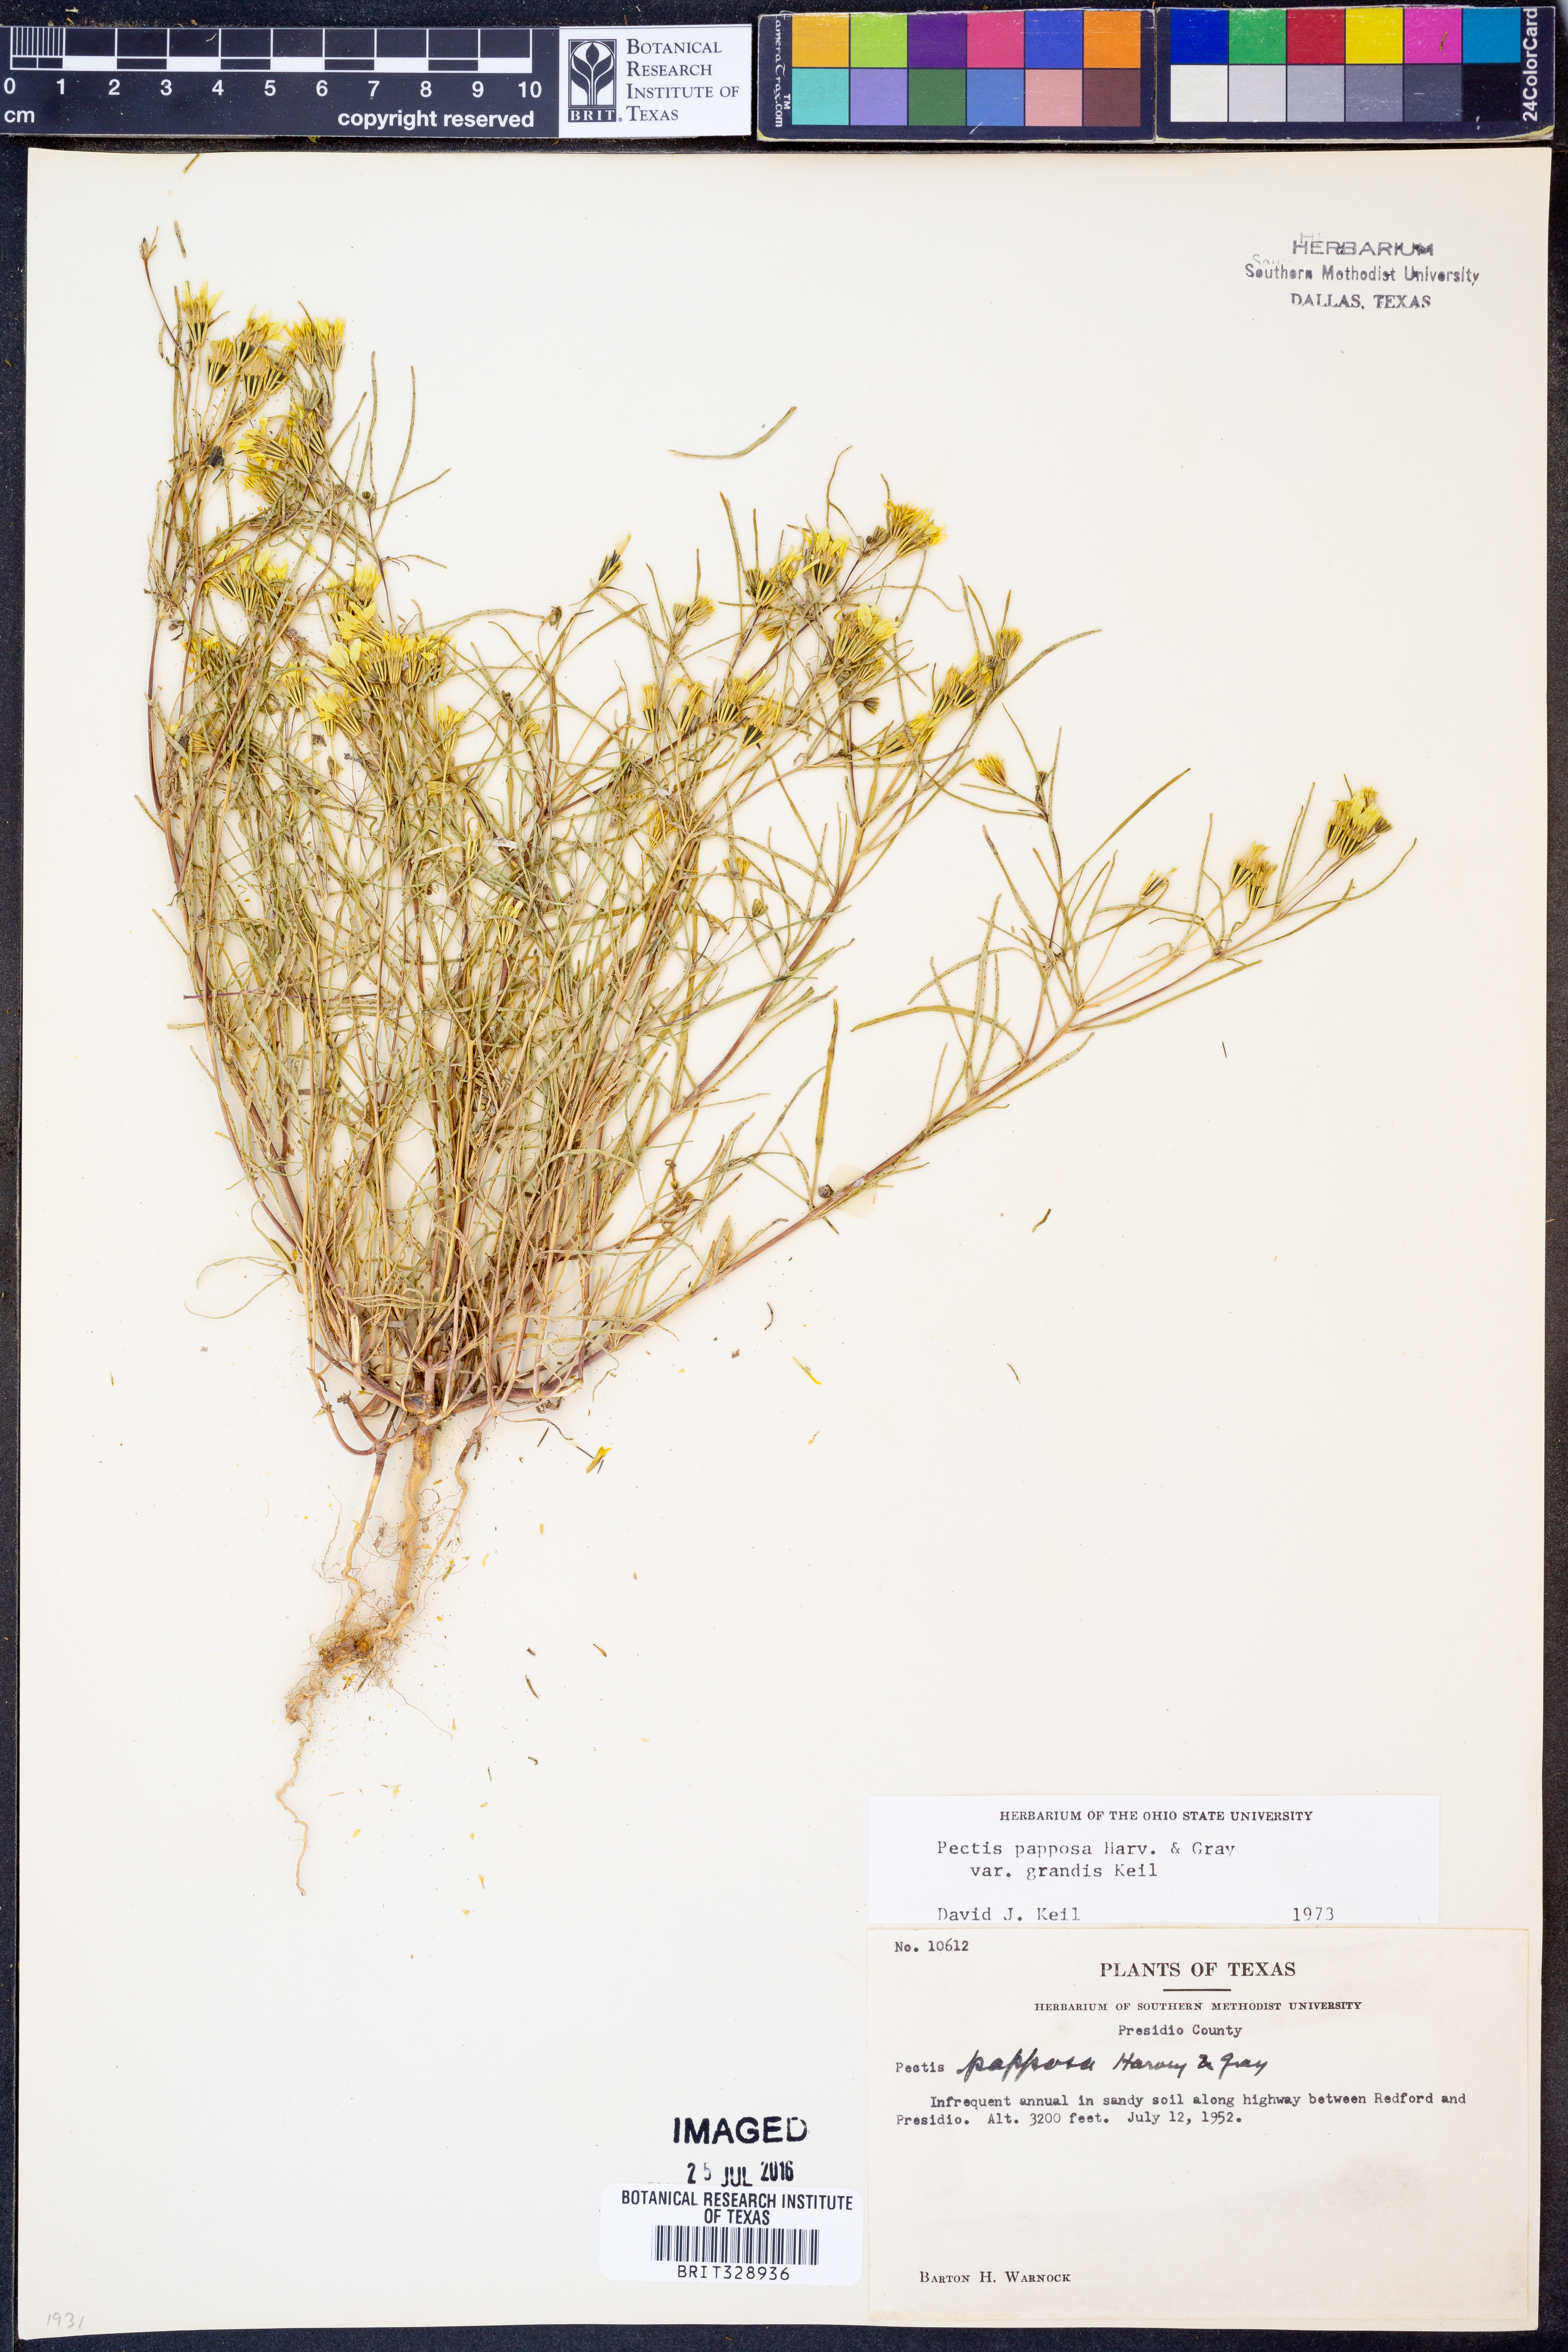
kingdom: Plantae
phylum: Tracheophyta
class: Magnoliopsida
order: Asterales
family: Asteraceae
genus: Pectis
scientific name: Pectis papposa
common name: Many-bristle chinchweed
